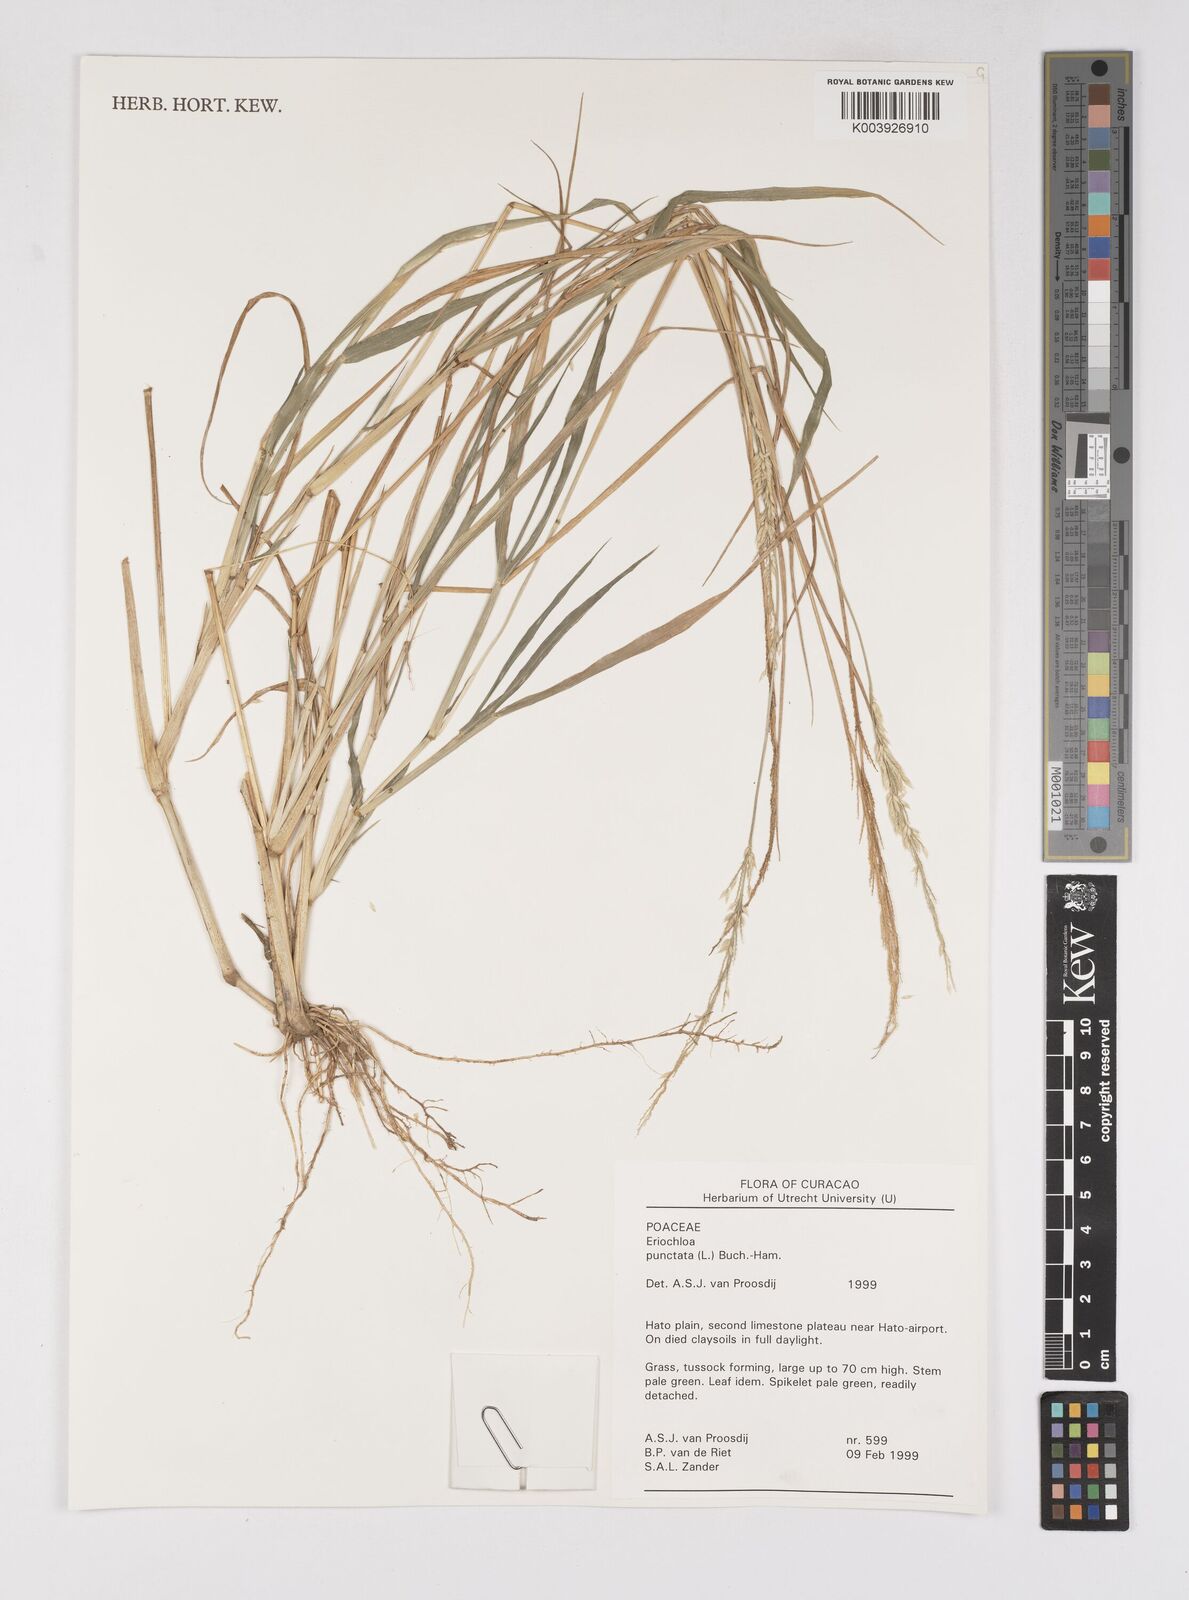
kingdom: Plantae
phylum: Tracheophyta
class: Liliopsida
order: Poales
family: Poaceae
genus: Eriochloa
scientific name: Eriochloa punctata
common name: Louisiana cupgrass
